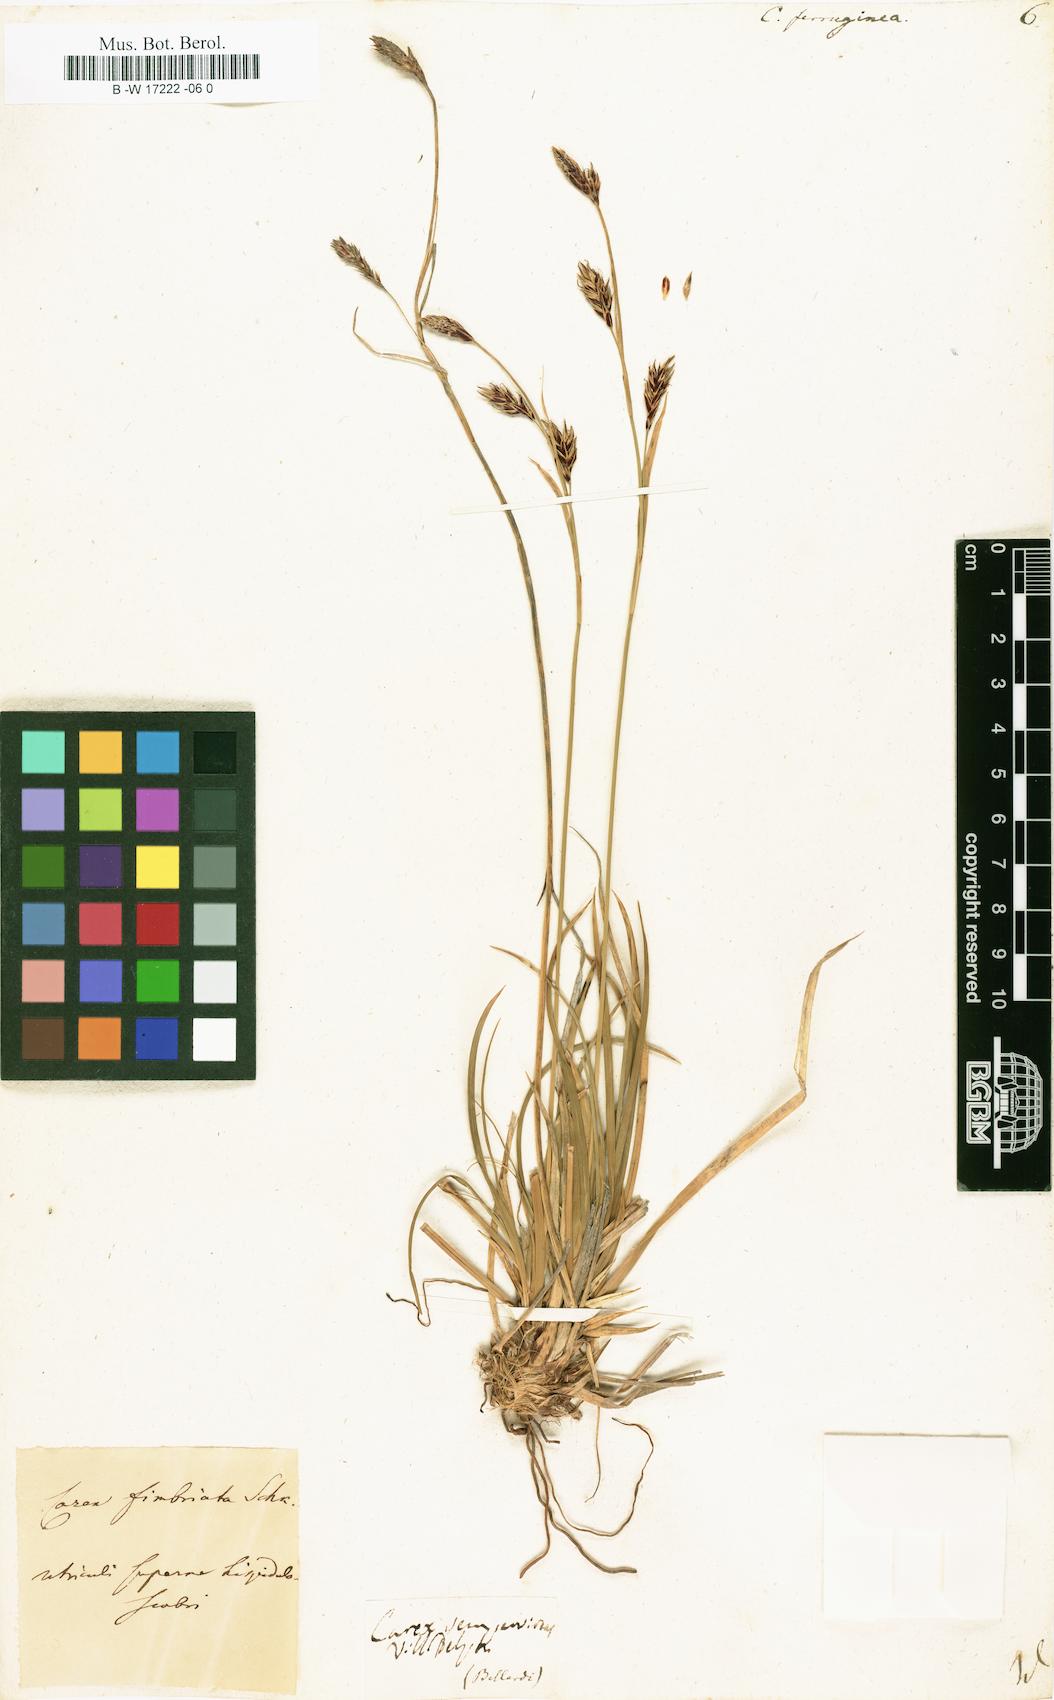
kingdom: Plantae
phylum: Tracheophyta
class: Liliopsida
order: Poales
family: Cyperaceae
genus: Carex
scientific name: Carex ferruginea
